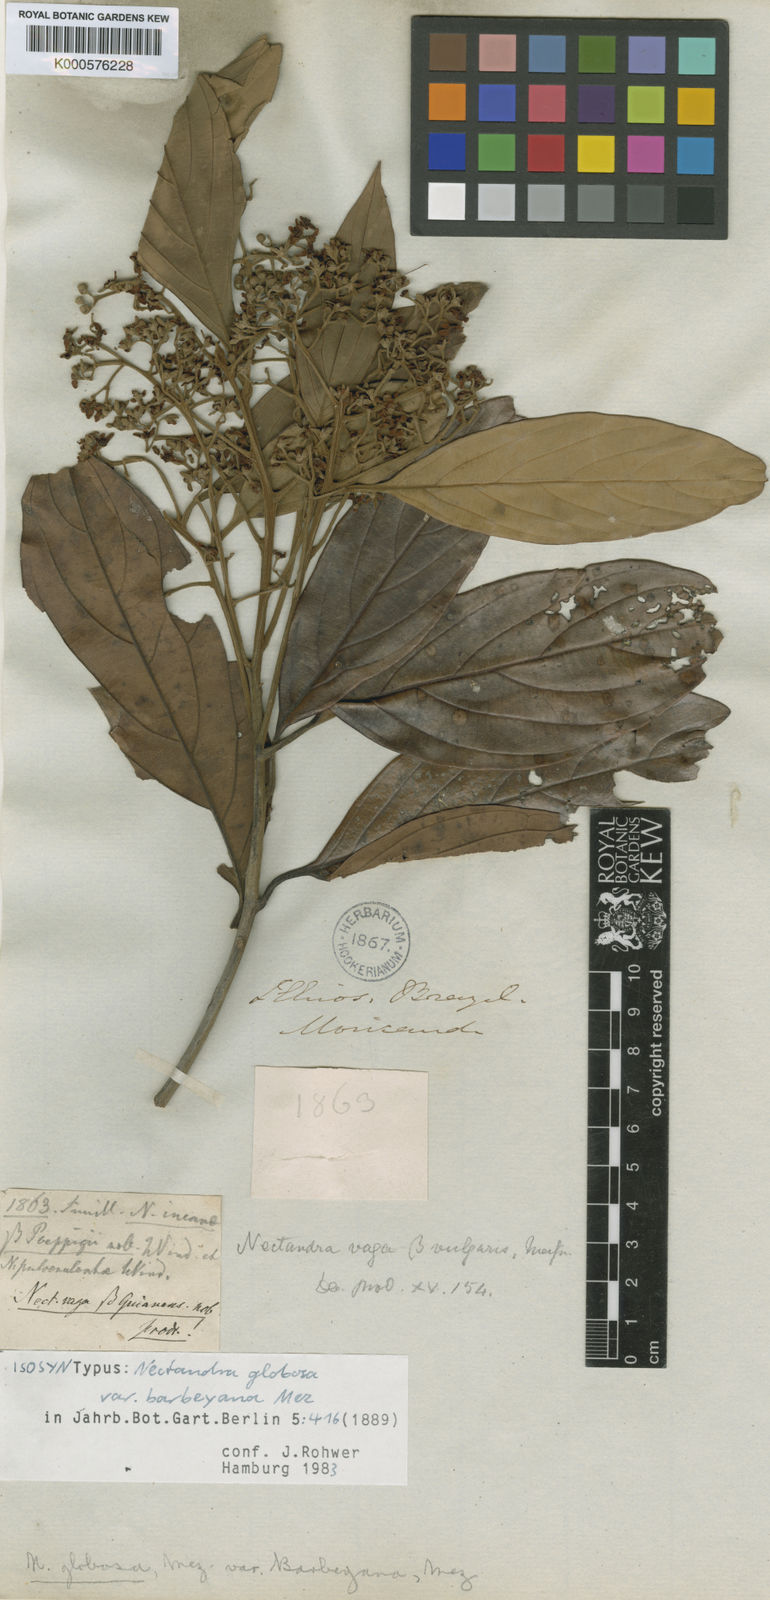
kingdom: Plantae
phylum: Tracheophyta
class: Magnoliopsida
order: Laurales
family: Lauraceae
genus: Nectandra
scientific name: Nectandra globosa
